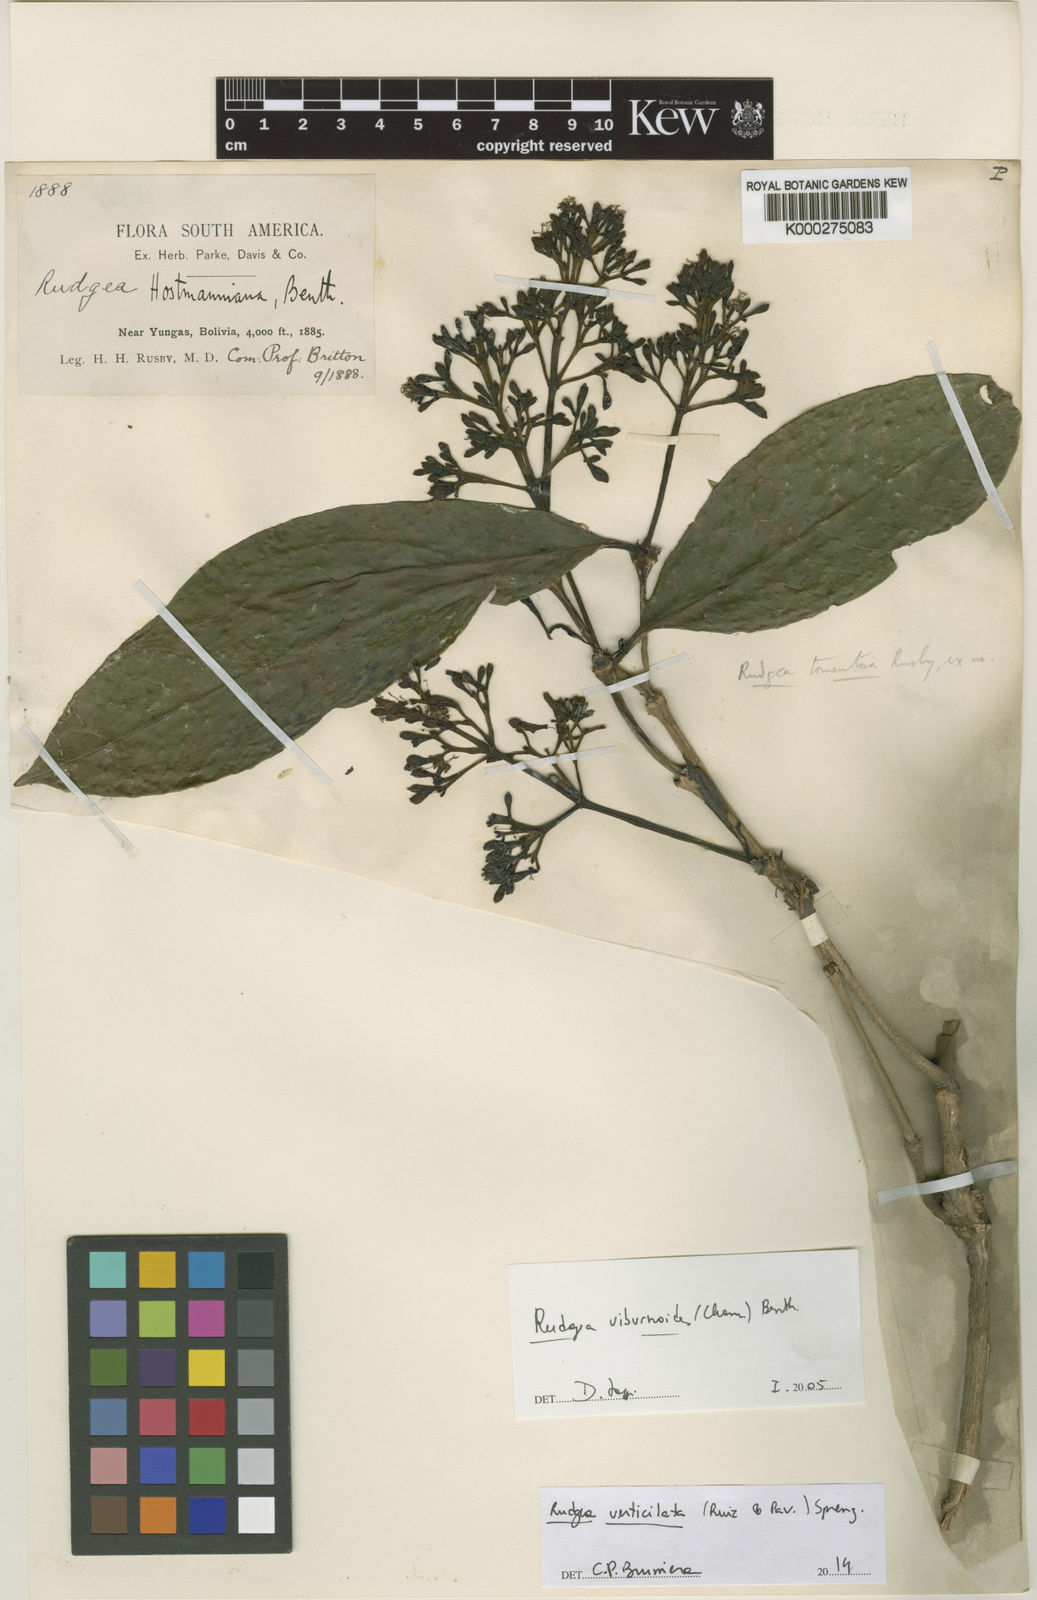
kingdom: Plantae
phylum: Tracheophyta
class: Magnoliopsida
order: Gentianales
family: Rubiaceae
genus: Rudgea
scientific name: Rudgea verticillata
